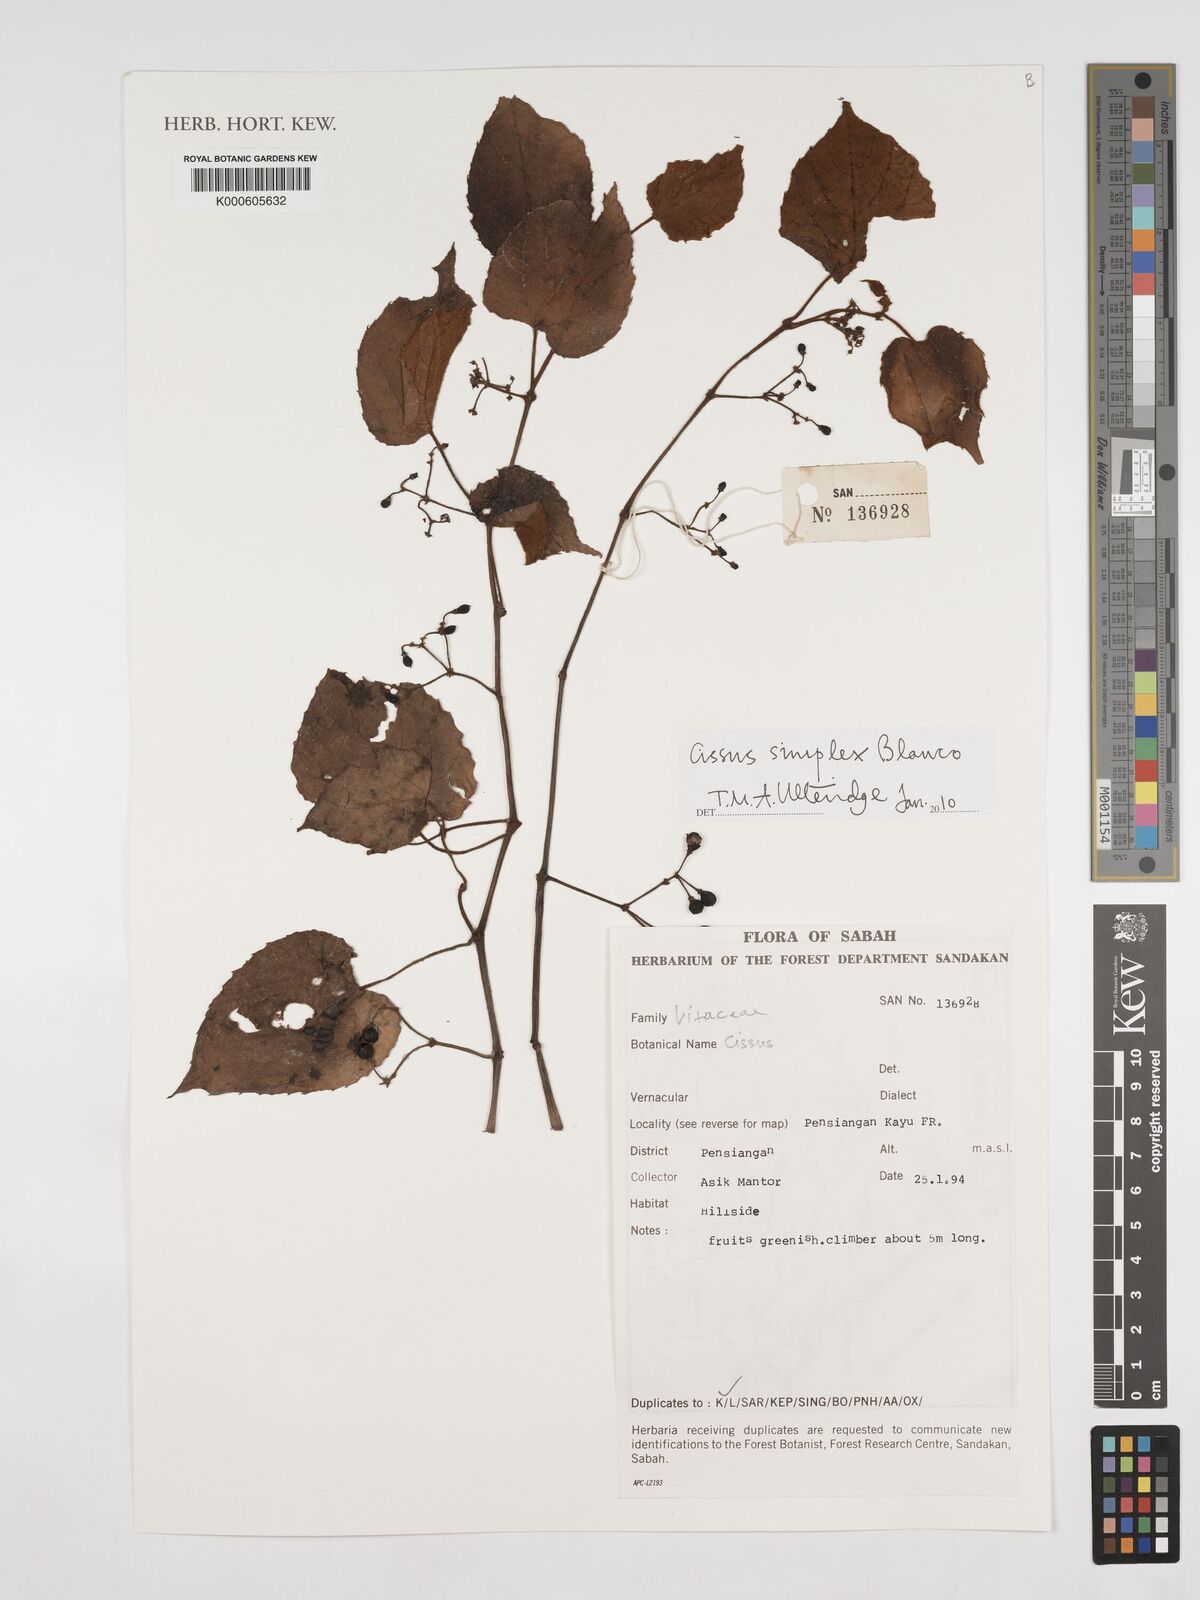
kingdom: Plantae
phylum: Tracheophyta
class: Magnoliopsida
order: Vitales
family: Vitaceae
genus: Cissus
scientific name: Cissus aristata
